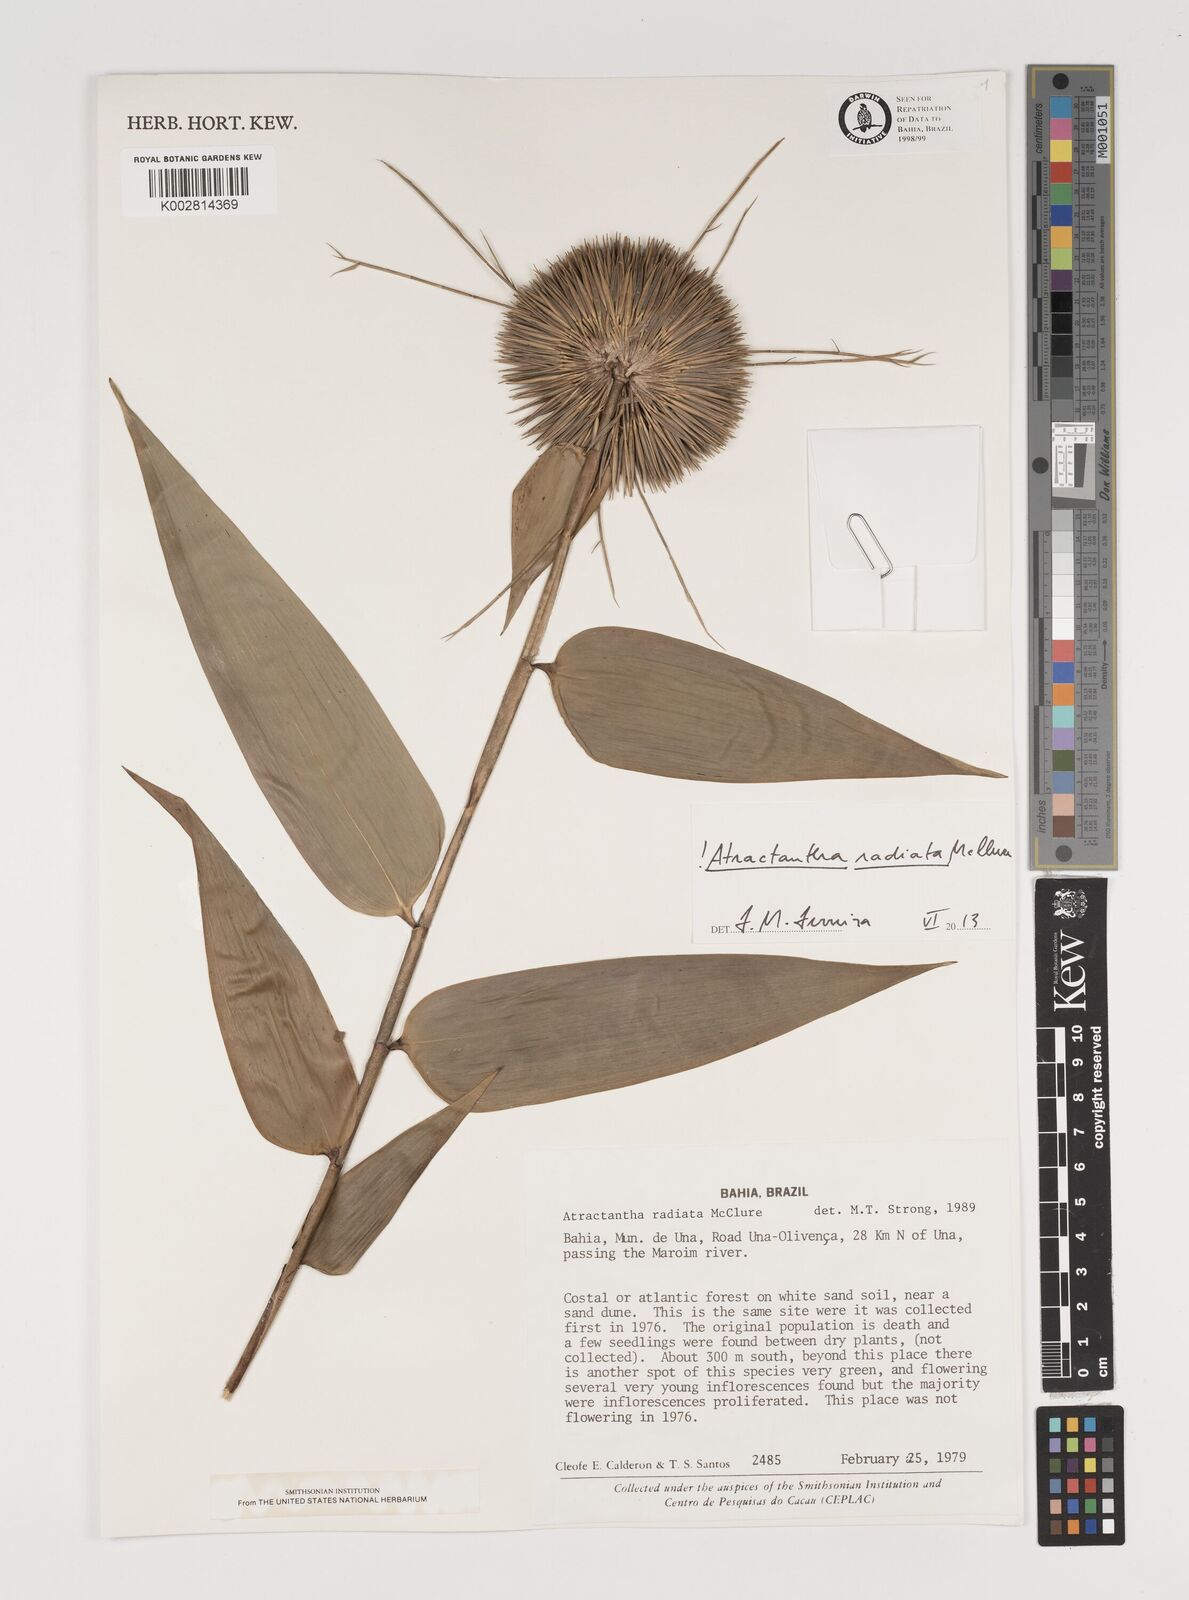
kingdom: Plantae
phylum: Tracheophyta
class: Liliopsida
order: Poales
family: Poaceae
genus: Atractantha
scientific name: Atractantha radiata
